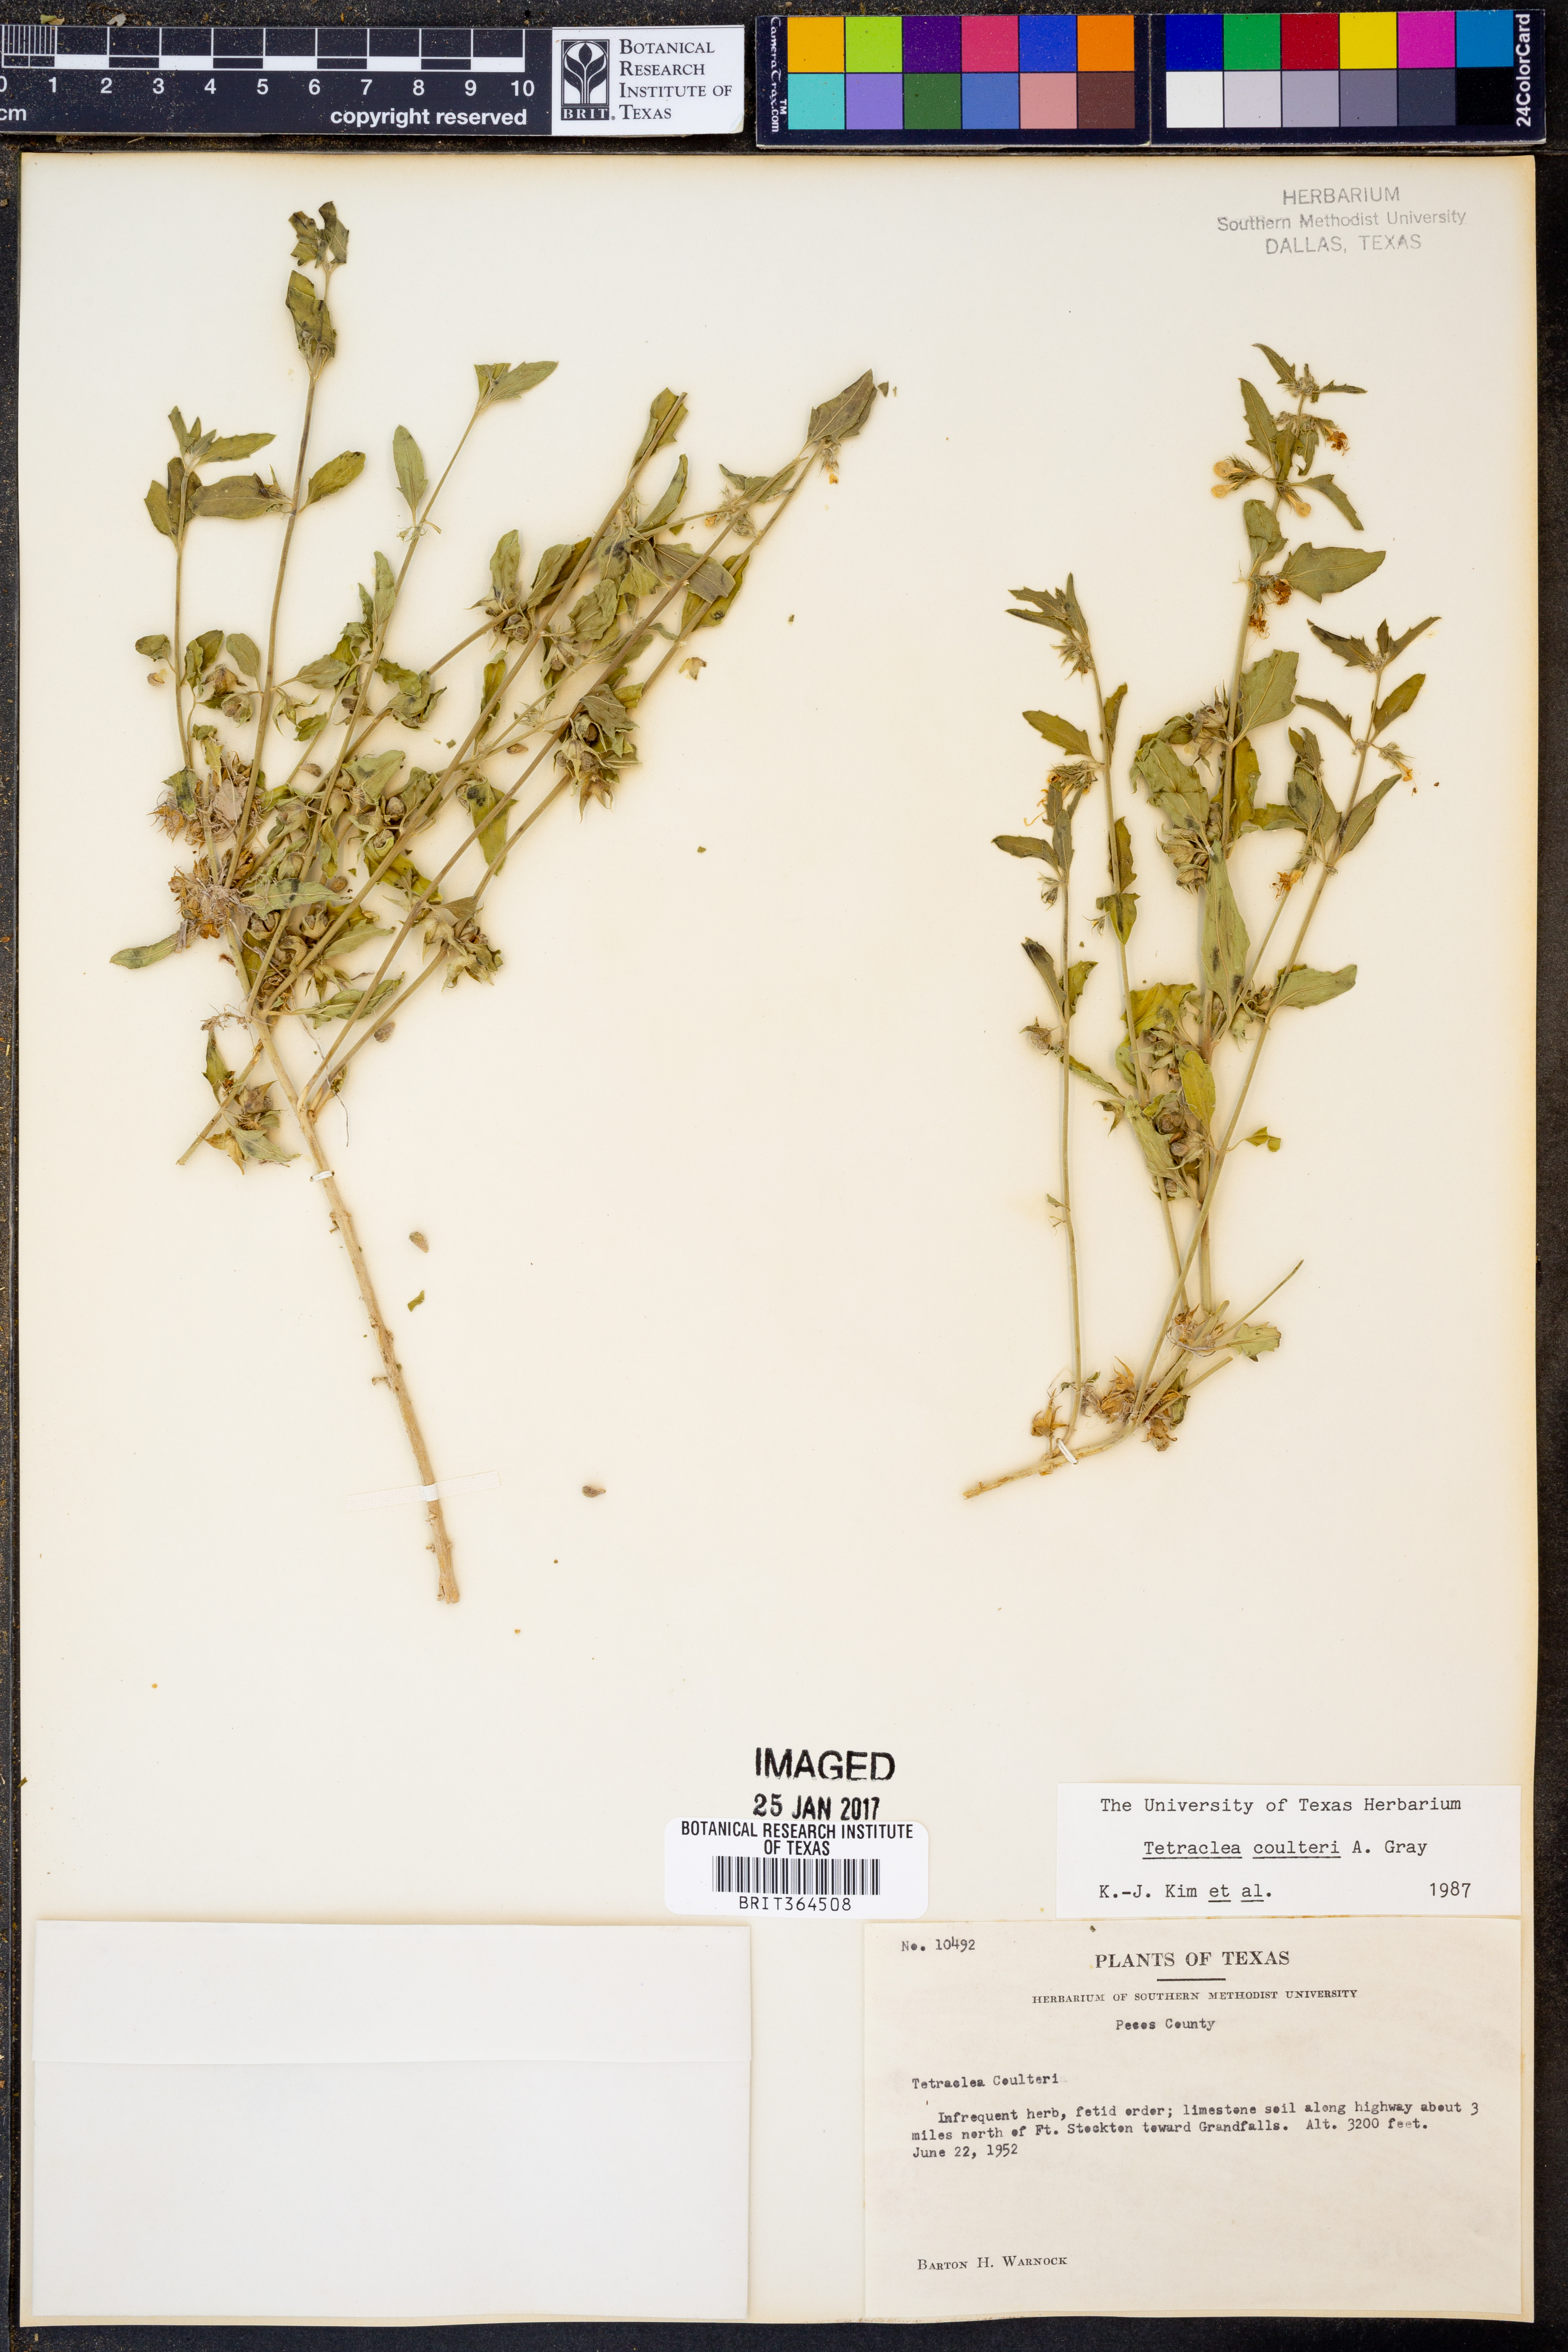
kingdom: Plantae
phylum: Tracheophyta
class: Magnoliopsida
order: Lamiales
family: Lamiaceae
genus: Tetraclea
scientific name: Tetraclea coulteri
